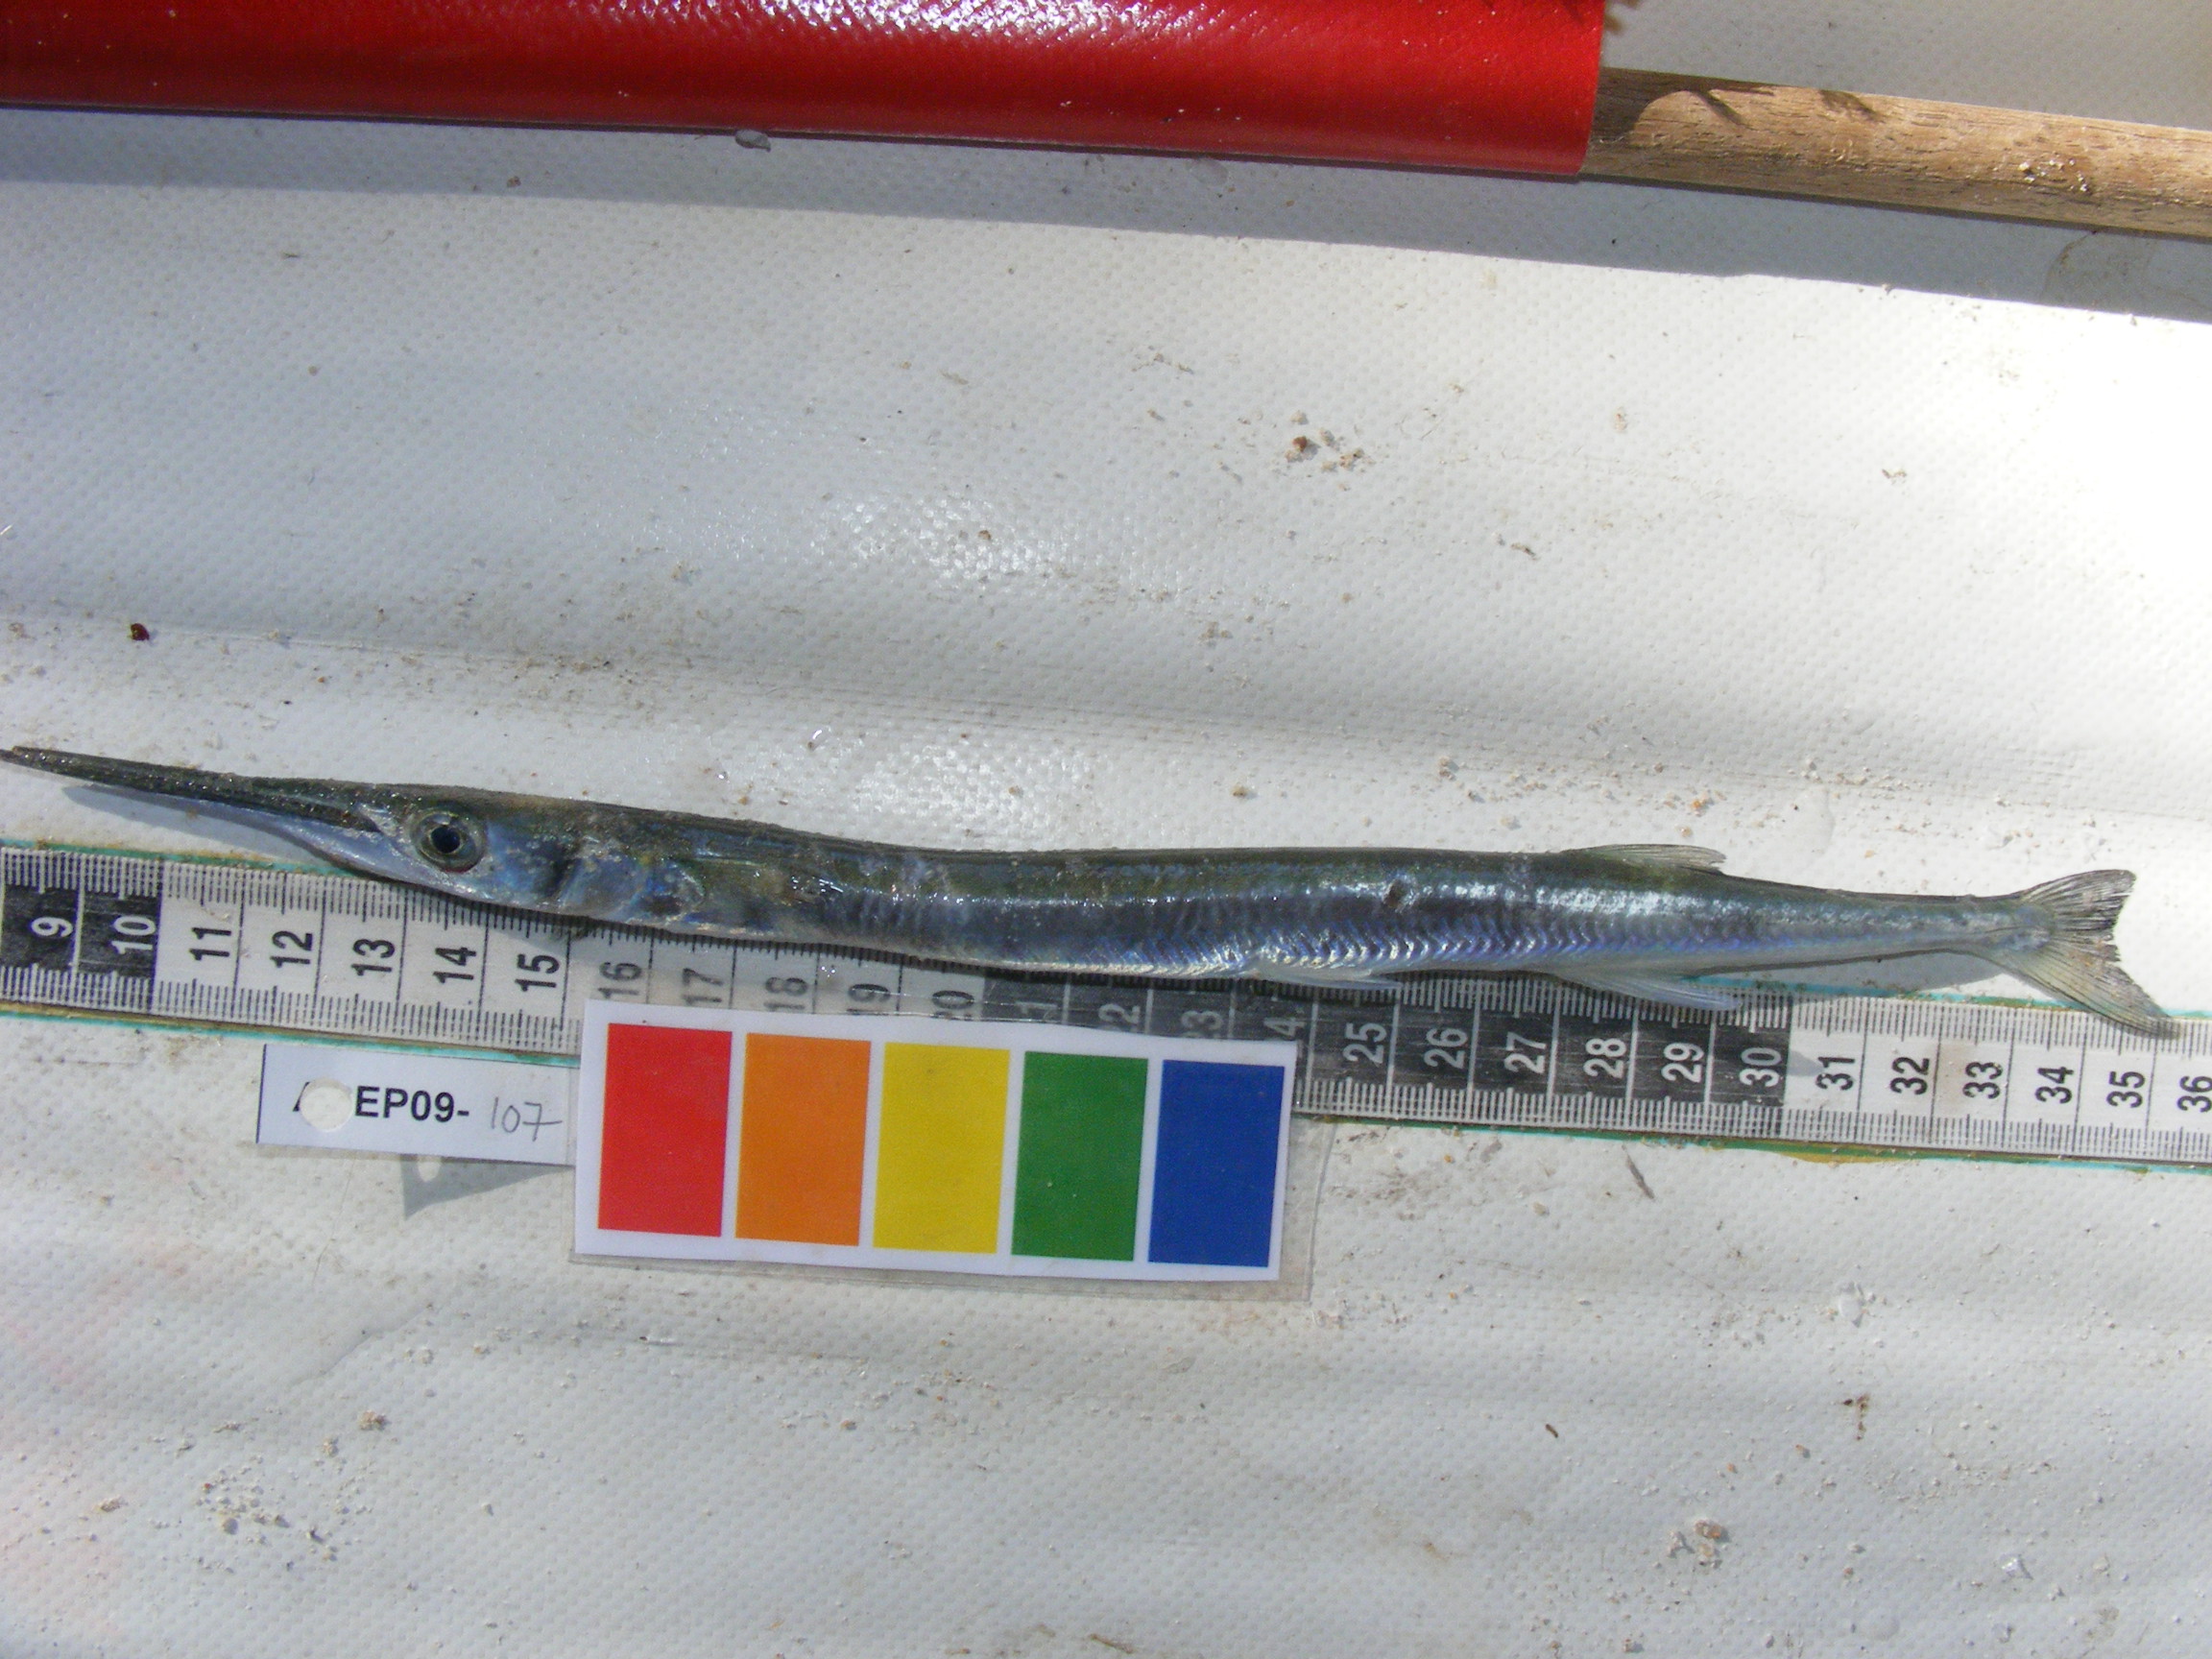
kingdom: Animalia
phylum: Chordata
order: Beloniformes
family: Belonidae
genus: Tylosurus
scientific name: Tylosurus crocodilus
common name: Houndfish
